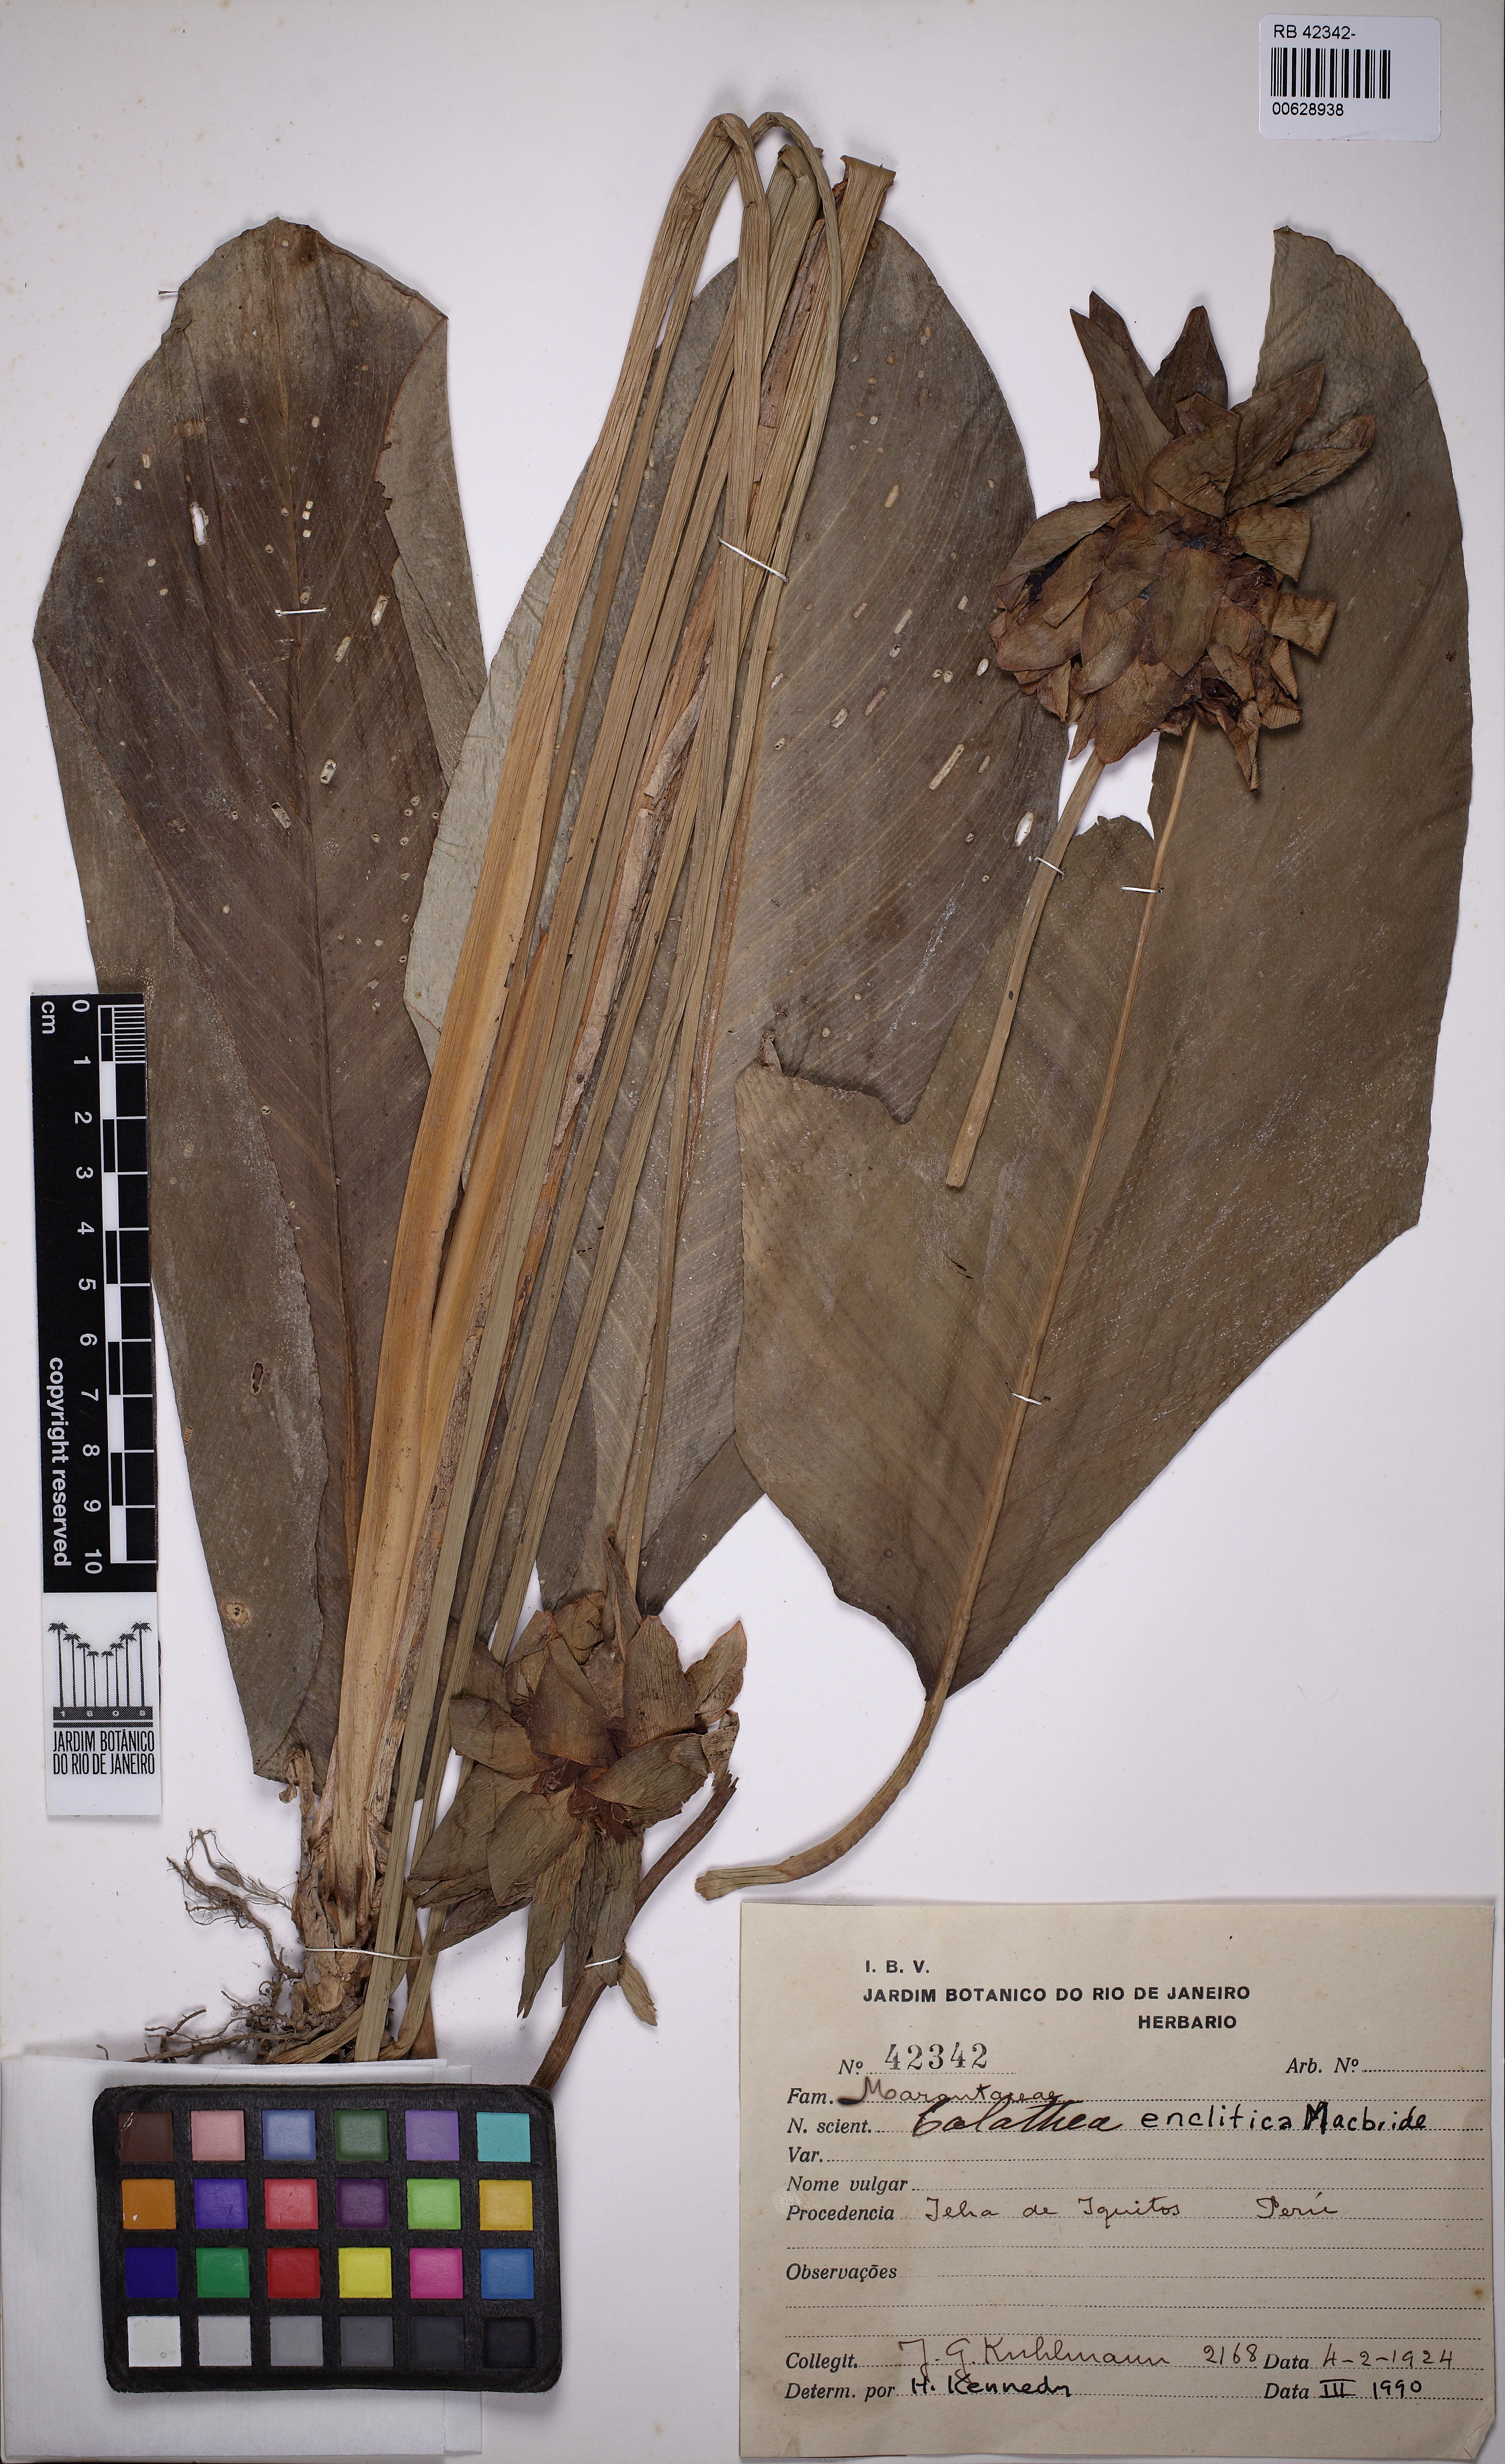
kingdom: Plantae
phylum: Tracheophyta
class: Liliopsida
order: Zingiberales
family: Marantaceae
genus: Goeppertia
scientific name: Goeppertia enclitica
